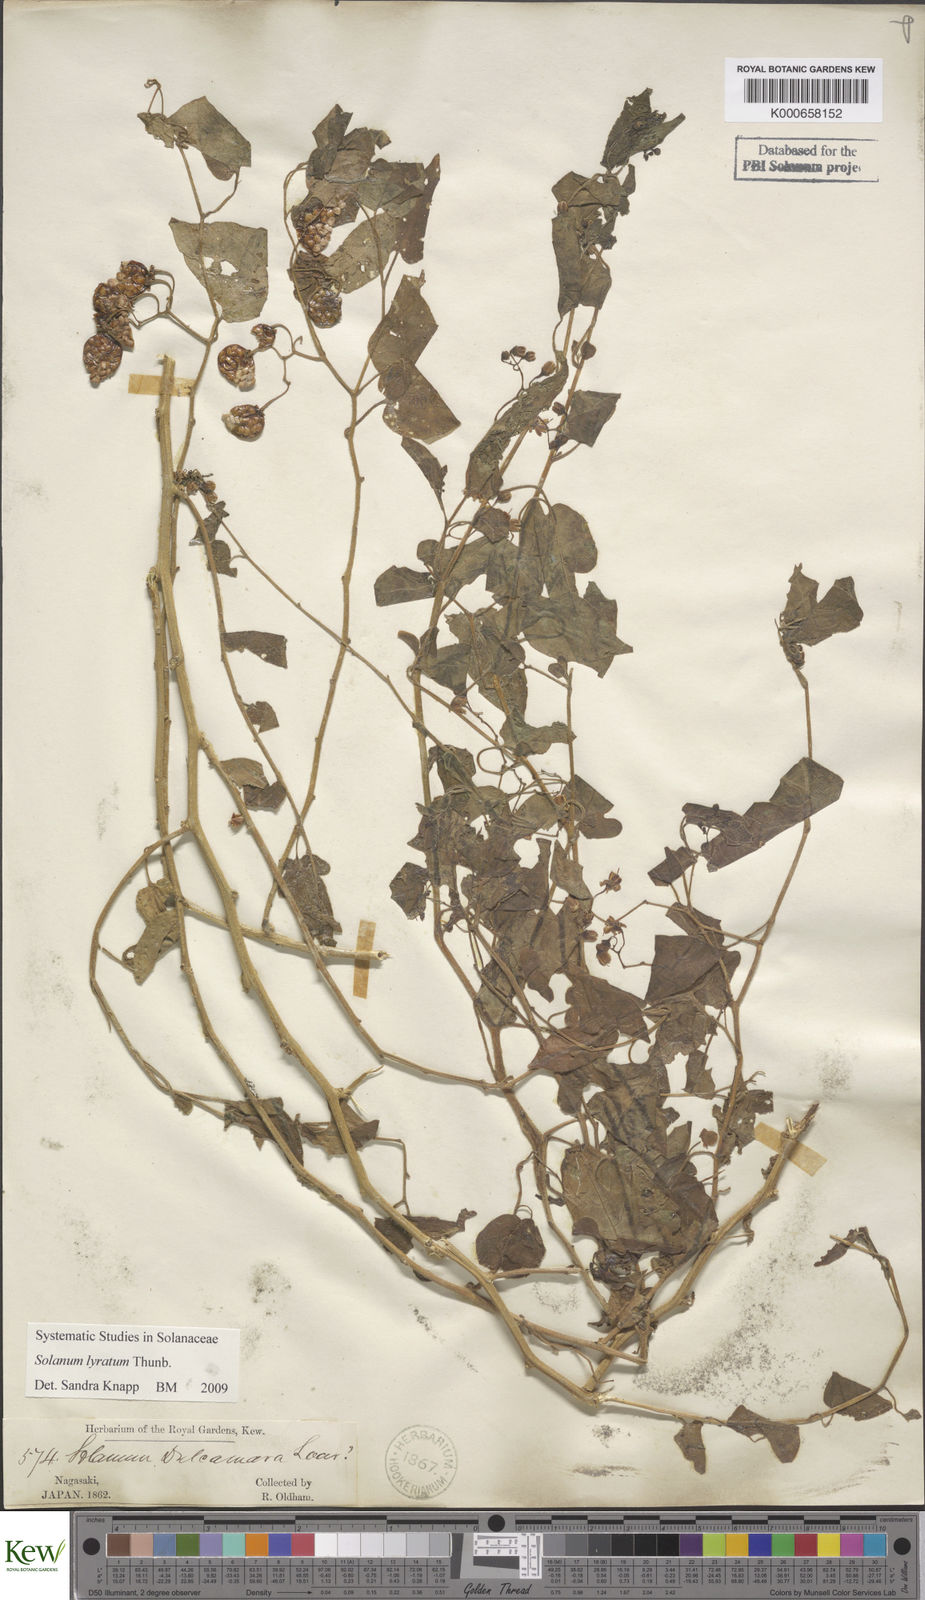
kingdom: Plantae
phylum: Tracheophyta
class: Magnoliopsida
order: Solanales
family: Solanaceae
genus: Solanum
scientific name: Solanum lyratum
